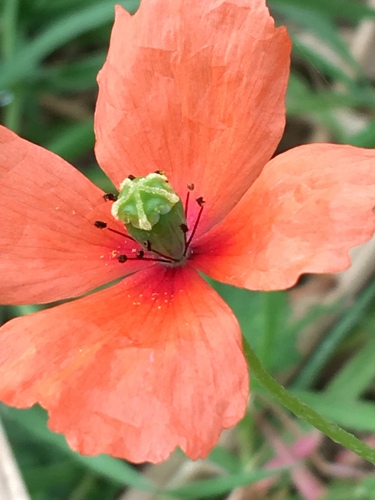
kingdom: Plantae
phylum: Tracheophyta
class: Magnoliopsida
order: Ranunculales
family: Papaveraceae
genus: Papaver
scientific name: Papaver dubium
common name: Long-headed poppy
